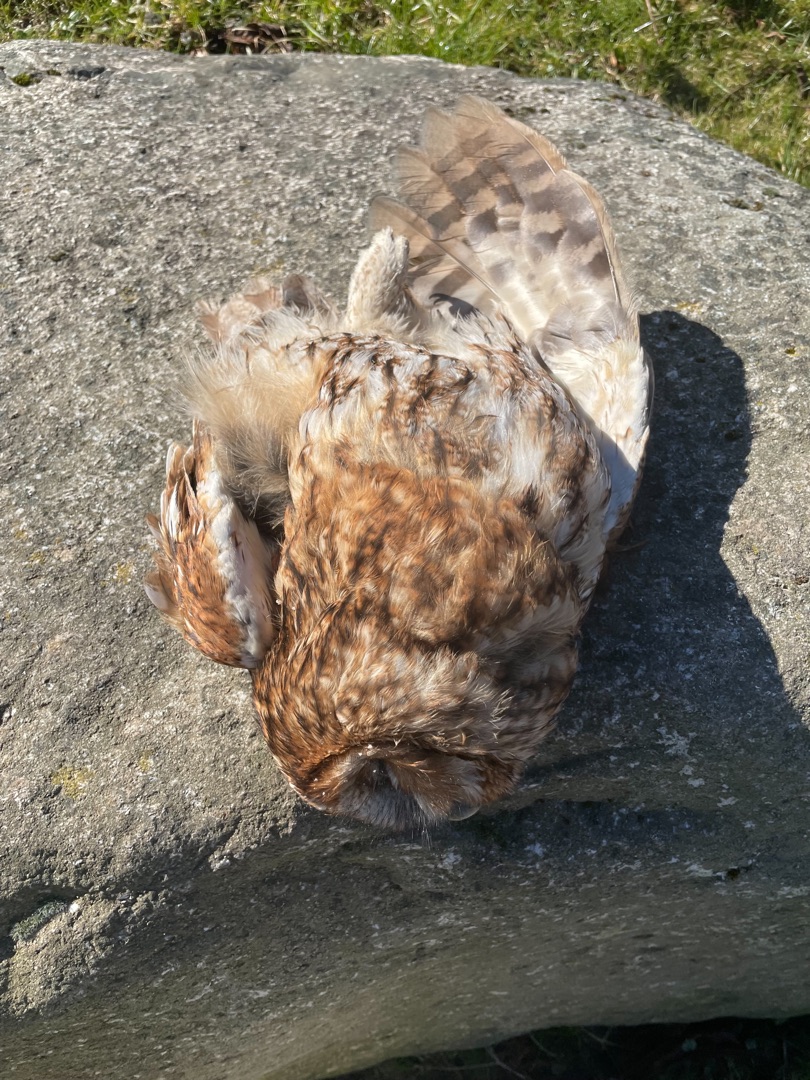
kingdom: Animalia
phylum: Chordata
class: Aves
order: Strigiformes
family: Strigidae
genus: Strix
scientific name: Strix aluco
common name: Natugle
